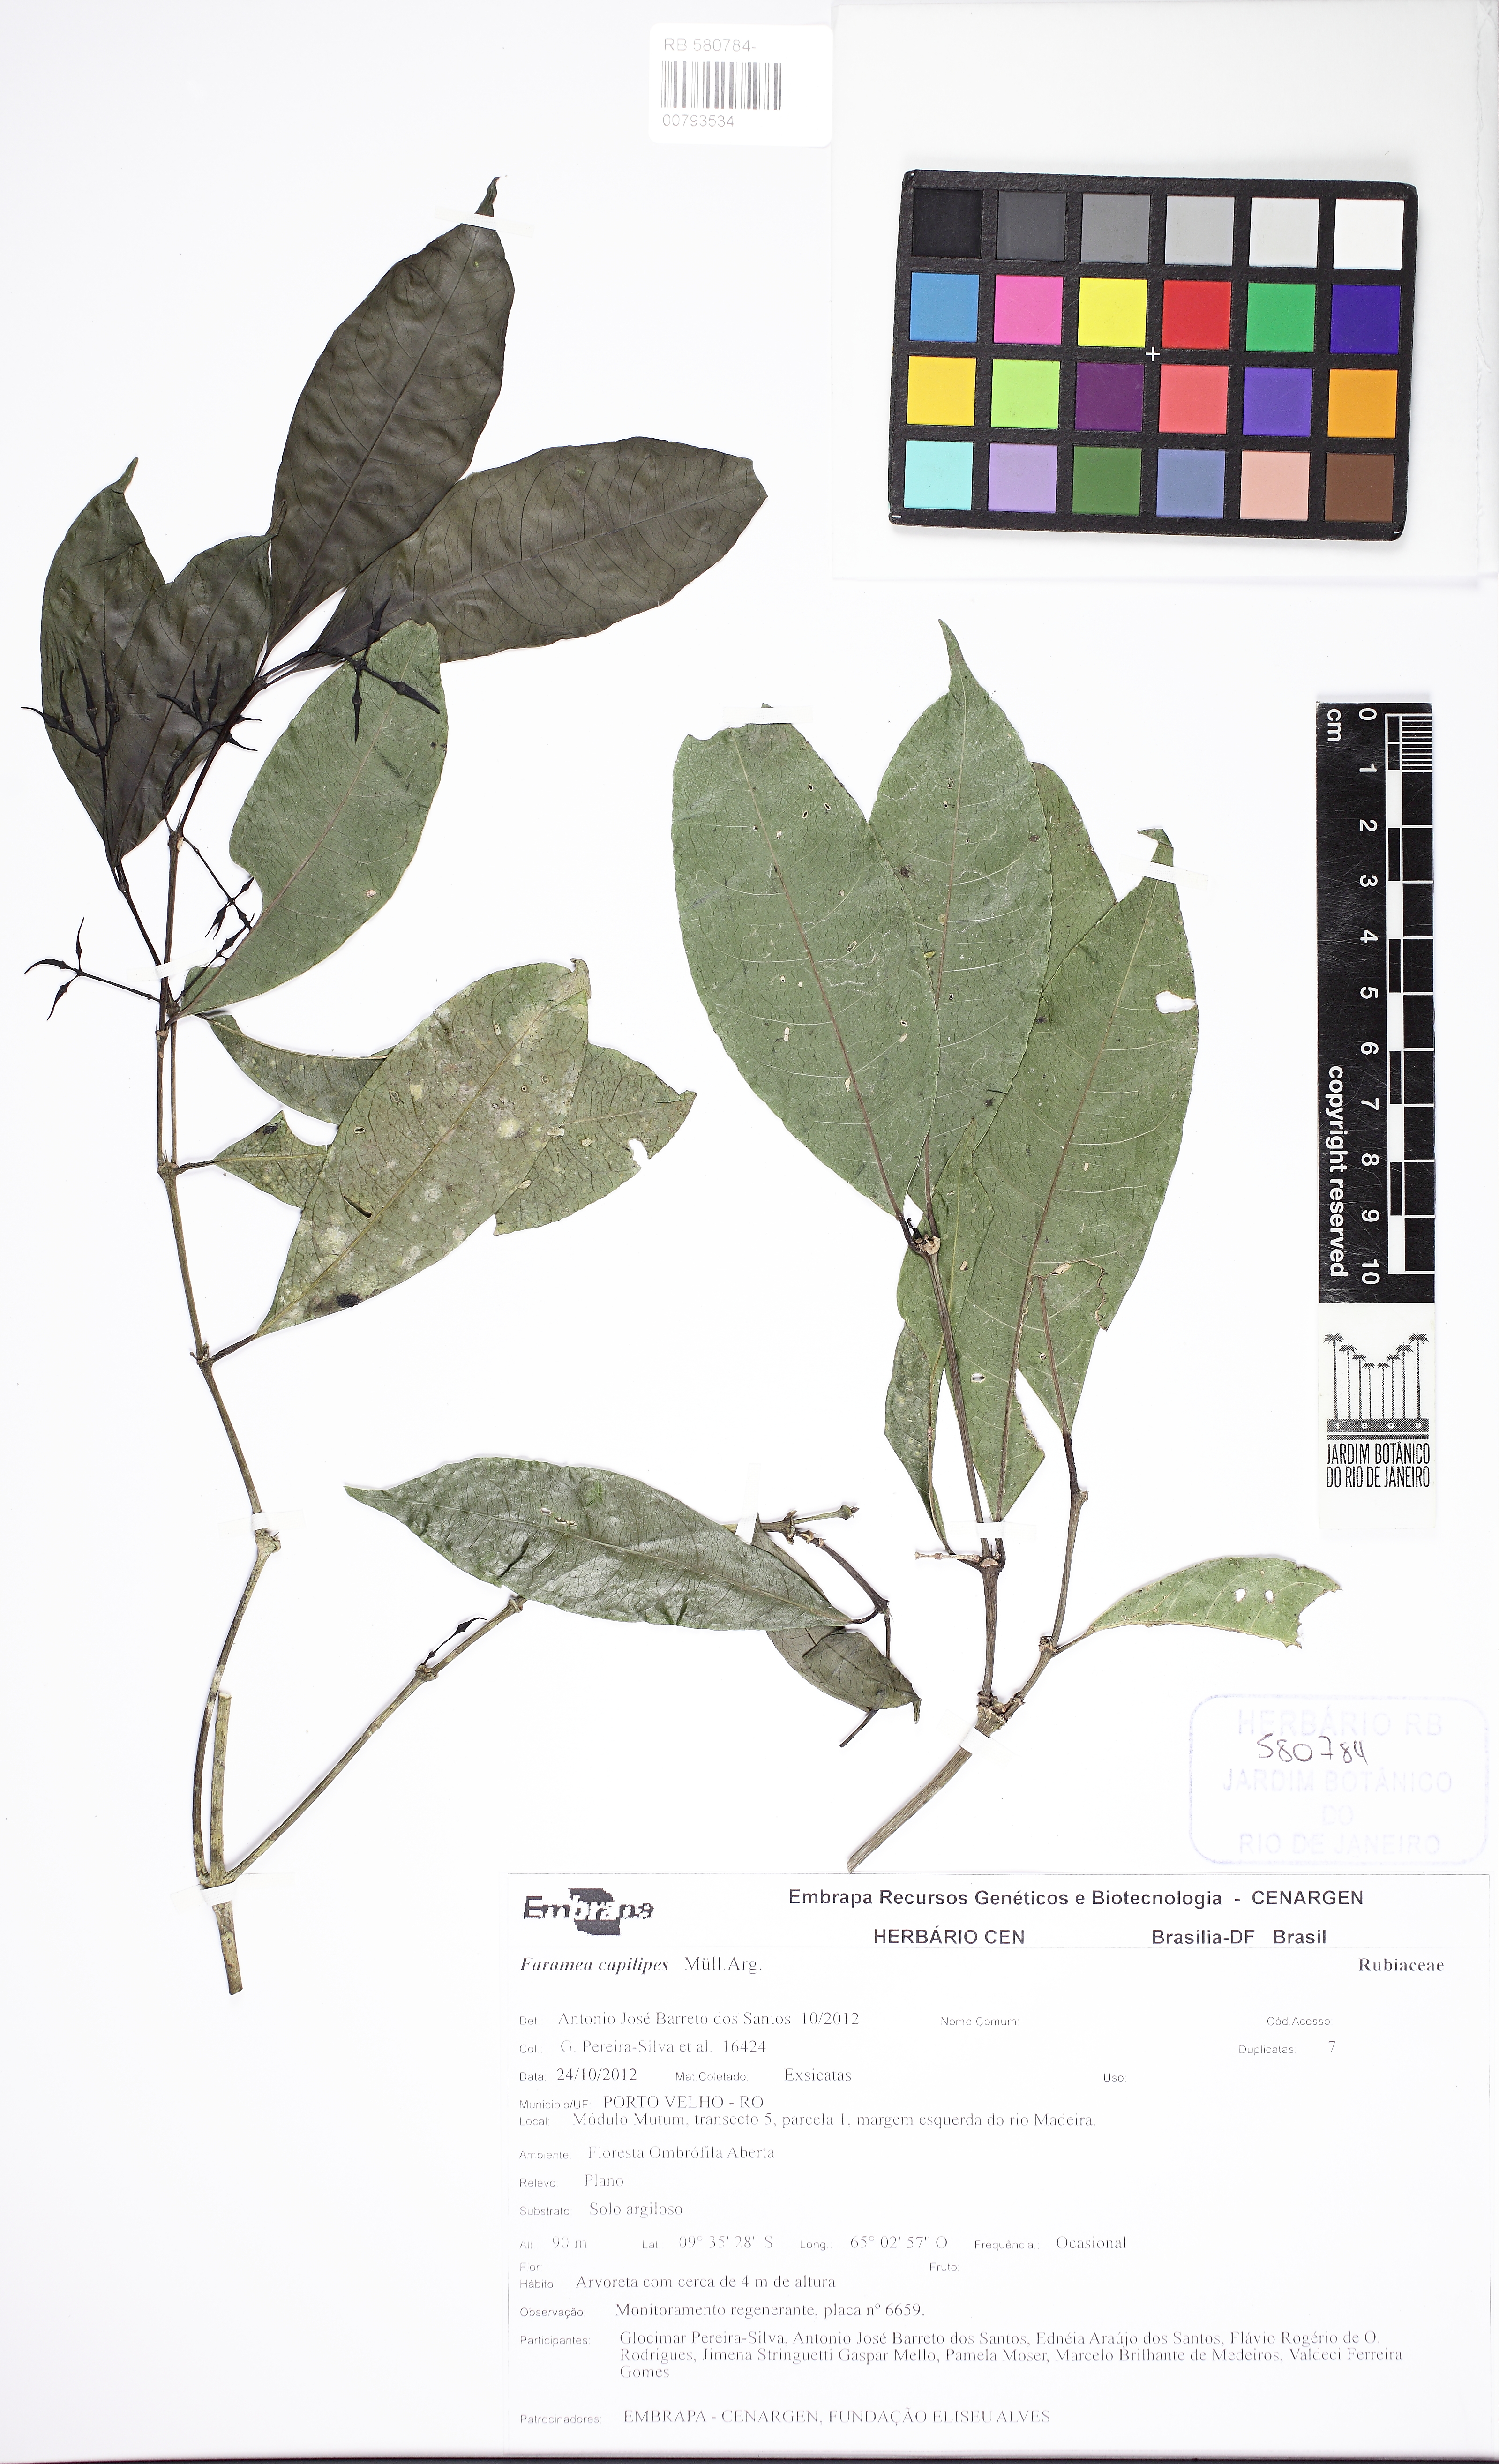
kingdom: Plantae
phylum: Tracheophyta
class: Magnoliopsida
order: Gentianales
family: Rubiaceae
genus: Faramea
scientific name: Faramea capillipes
